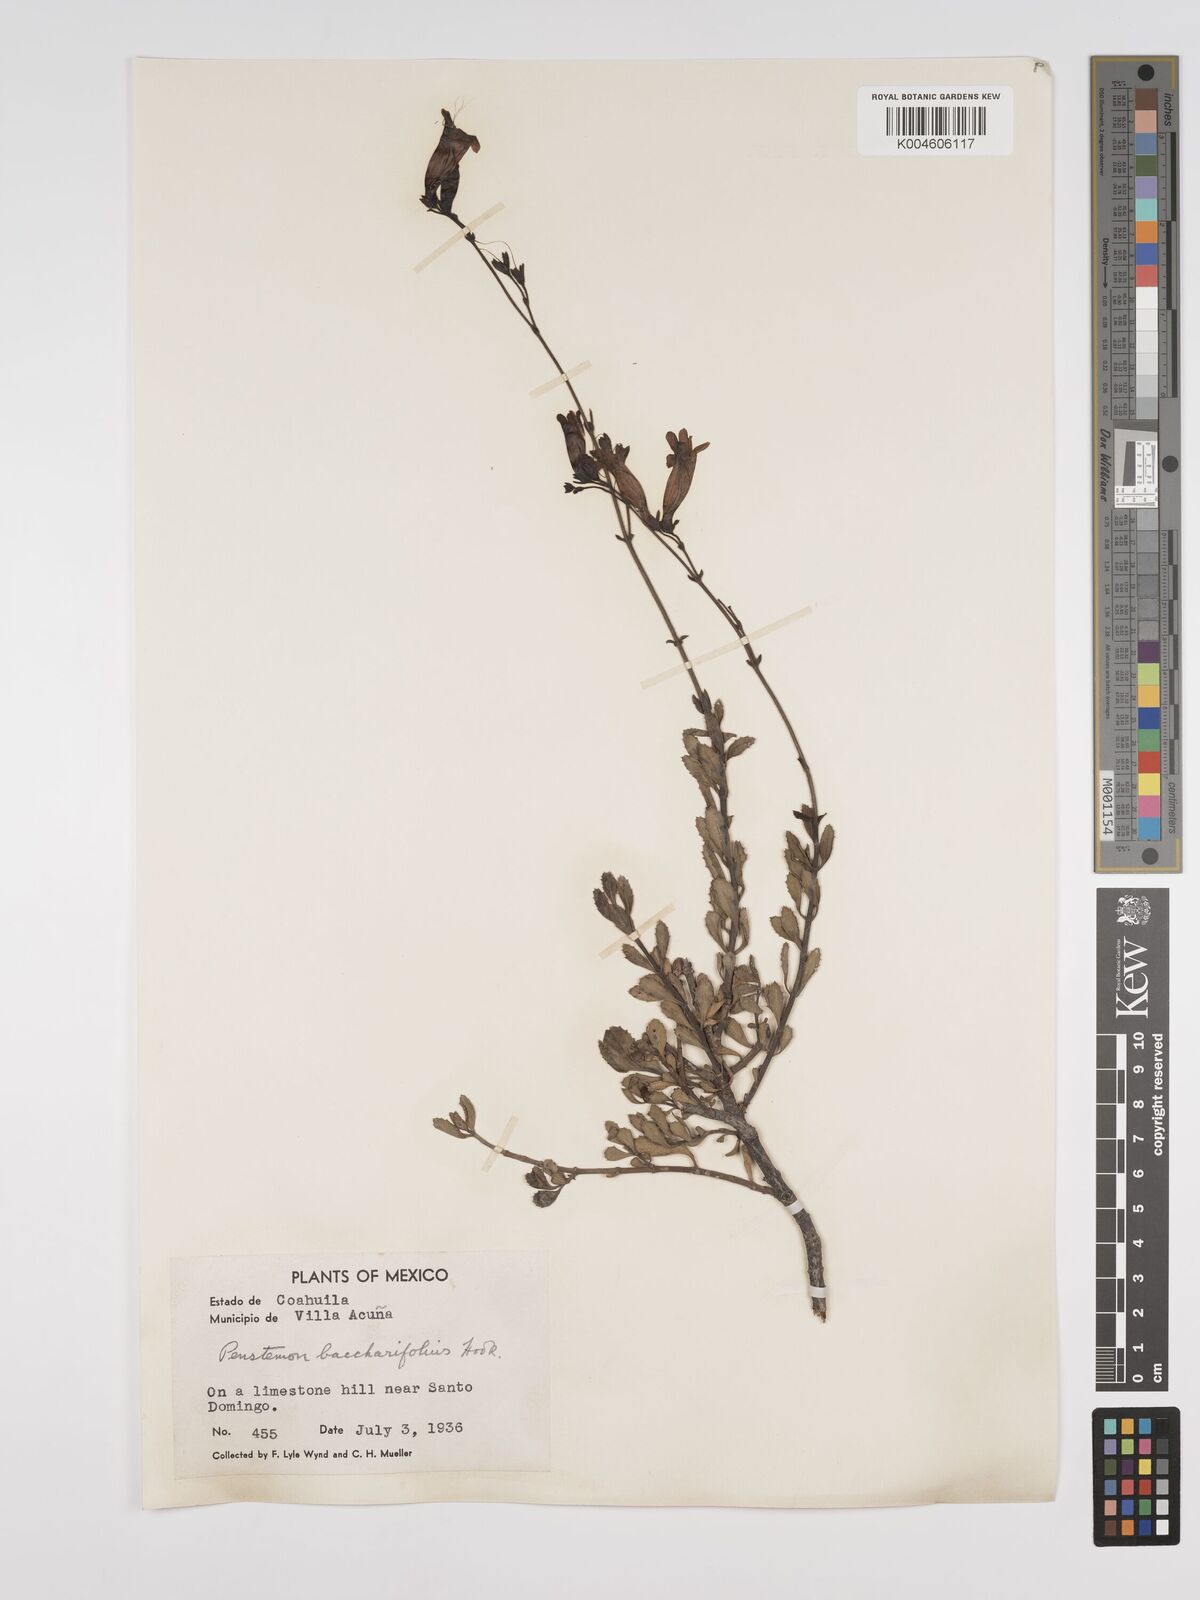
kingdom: Plantae
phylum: Tracheophyta
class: Magnoliopsida
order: Lamiales
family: Plantaginaceae
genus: Penstemon
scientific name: Penstemon schaffneri
